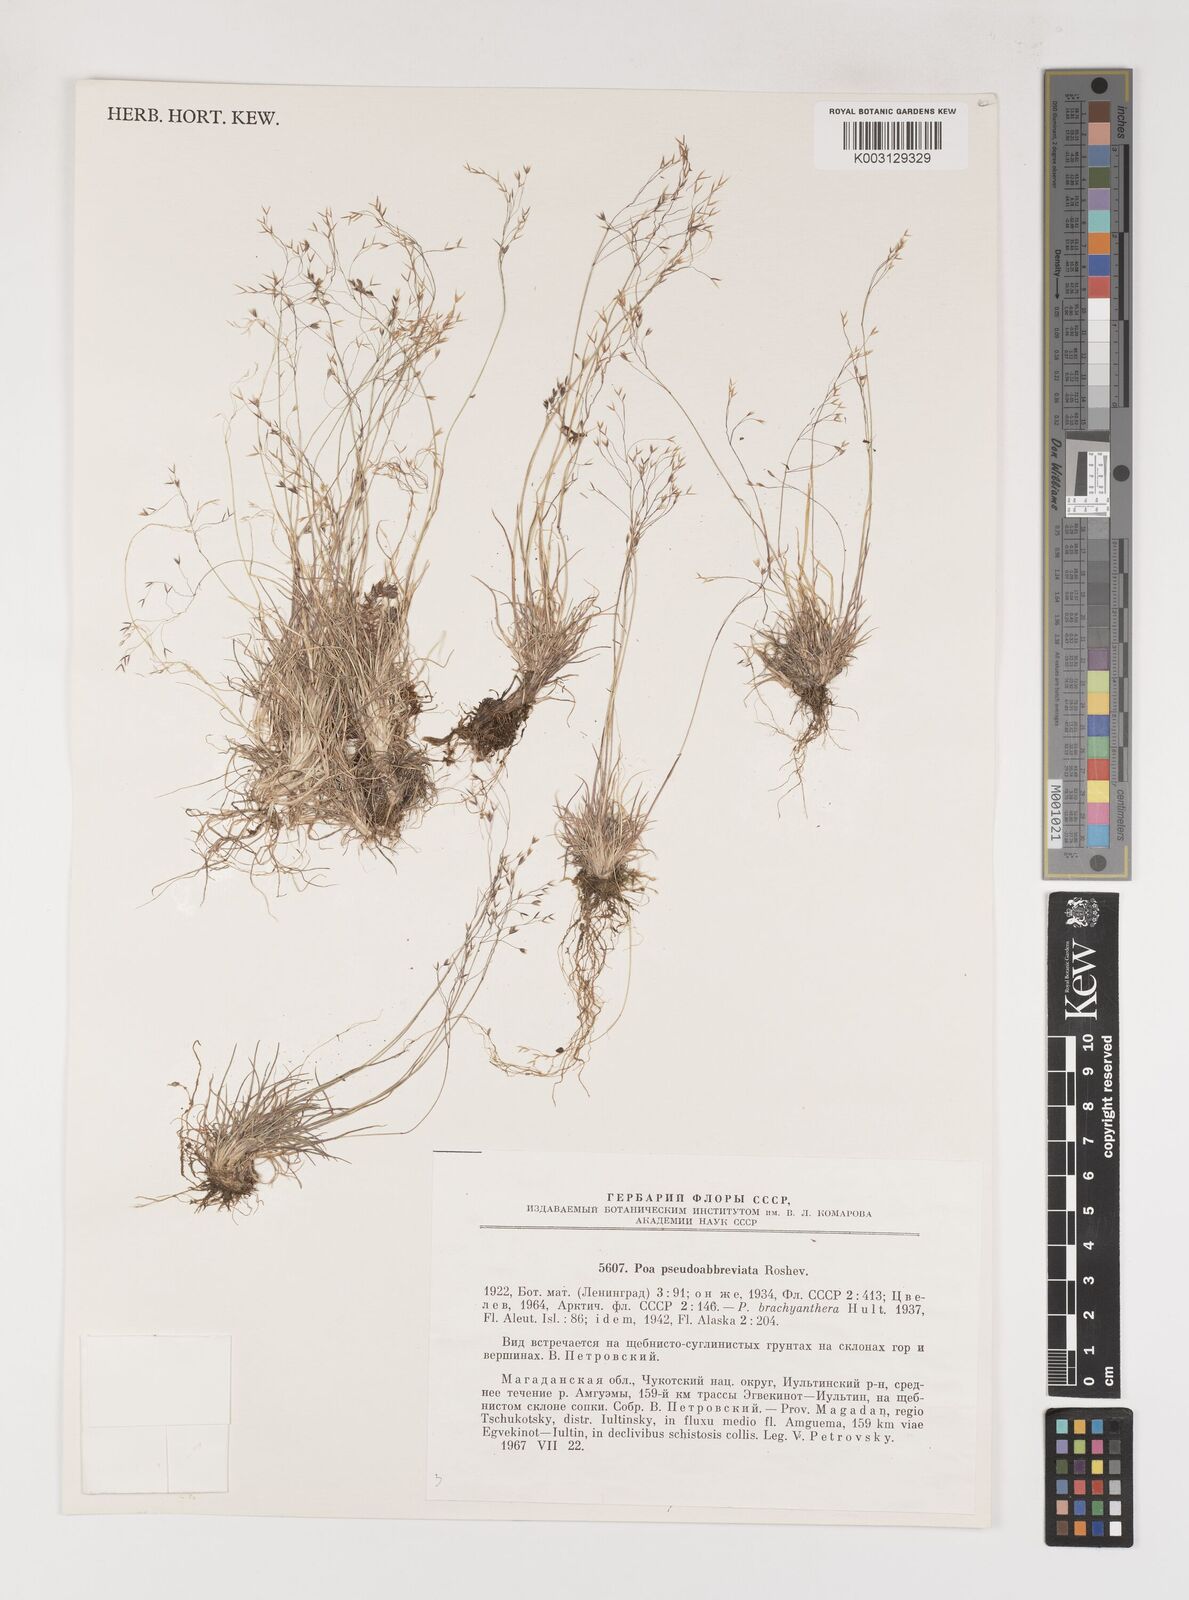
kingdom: Plantae
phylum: Tracheophyta
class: Liliopsida
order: Poales
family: Poaceae
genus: Poa
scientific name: Poa pseudoabbreviata
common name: Polar bluegrass
